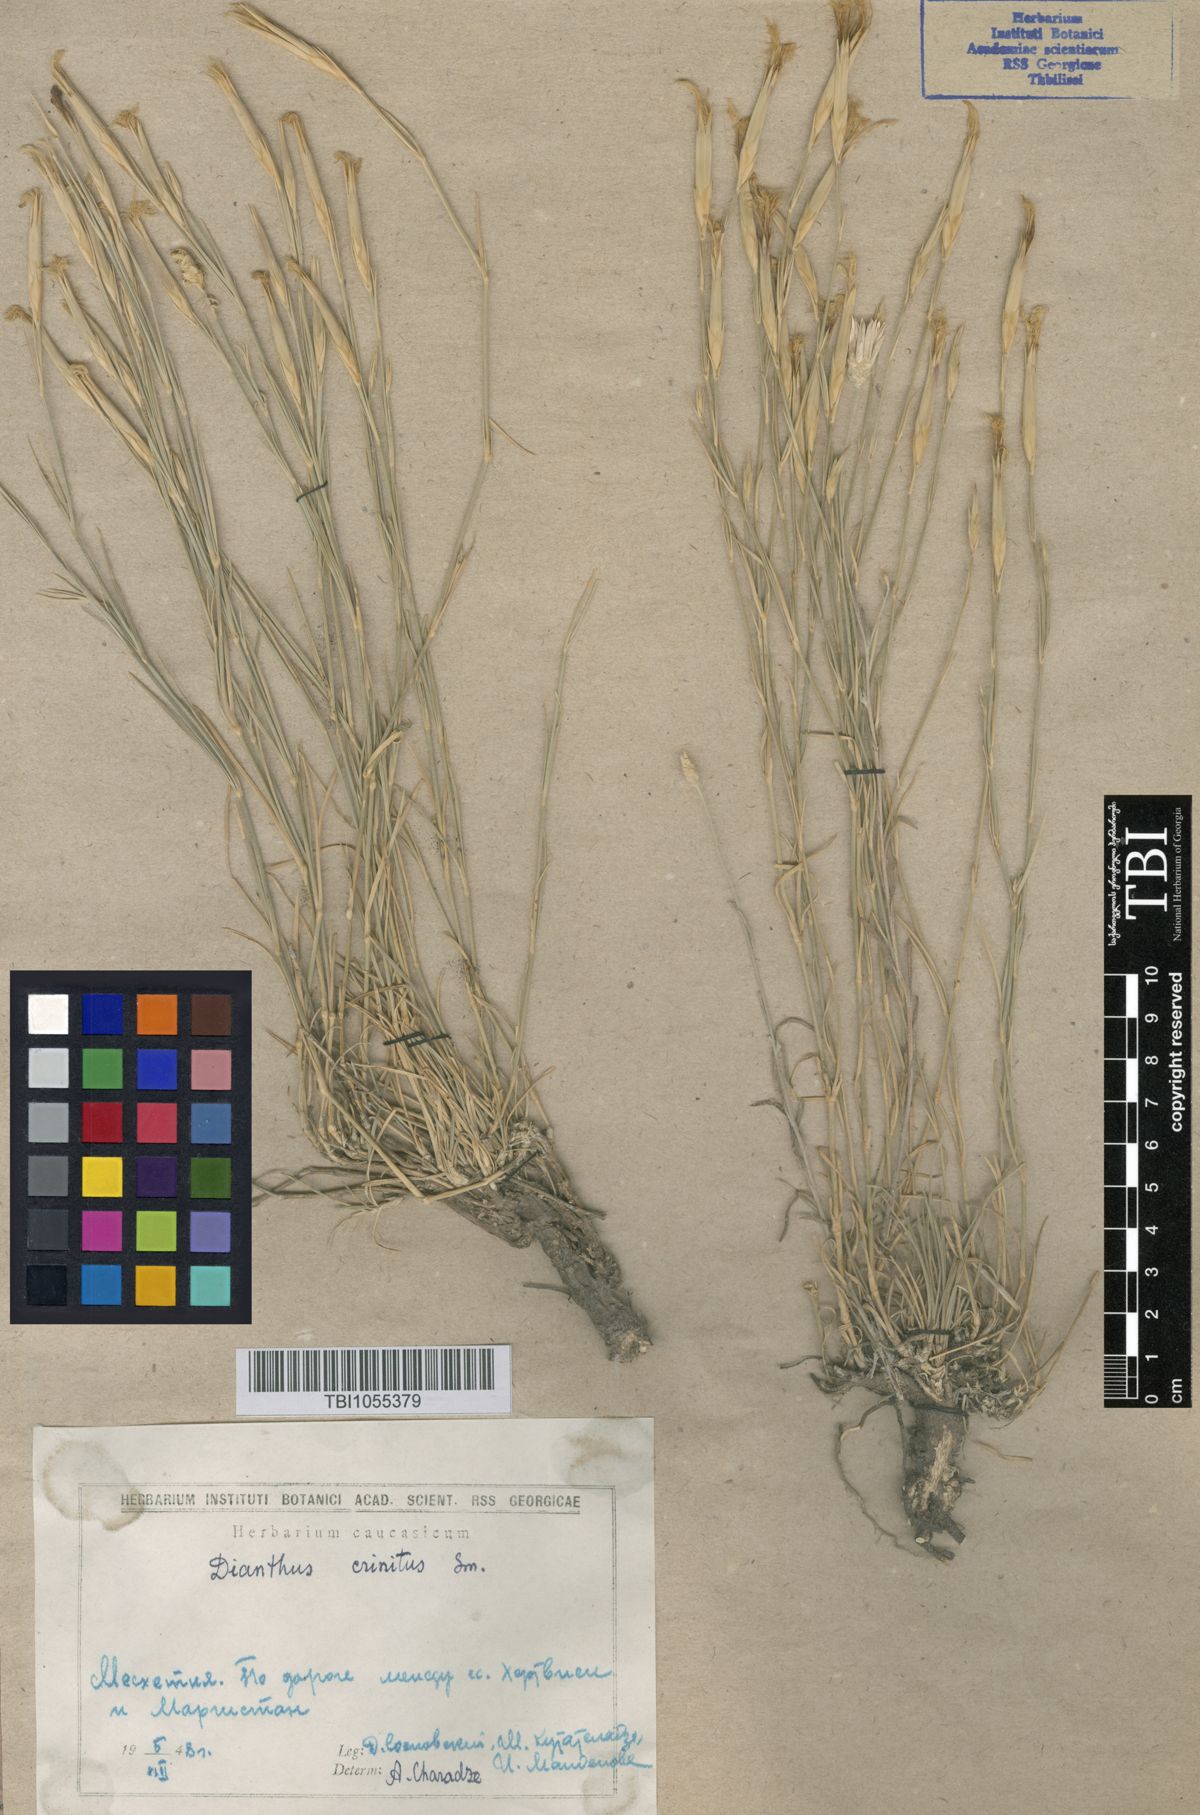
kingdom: Plantae
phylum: Tracheophyta
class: Magnoliopsida
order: Caryophyllales
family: Caryophyllaceae
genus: Dianthus
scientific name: Dianthus crinitus
